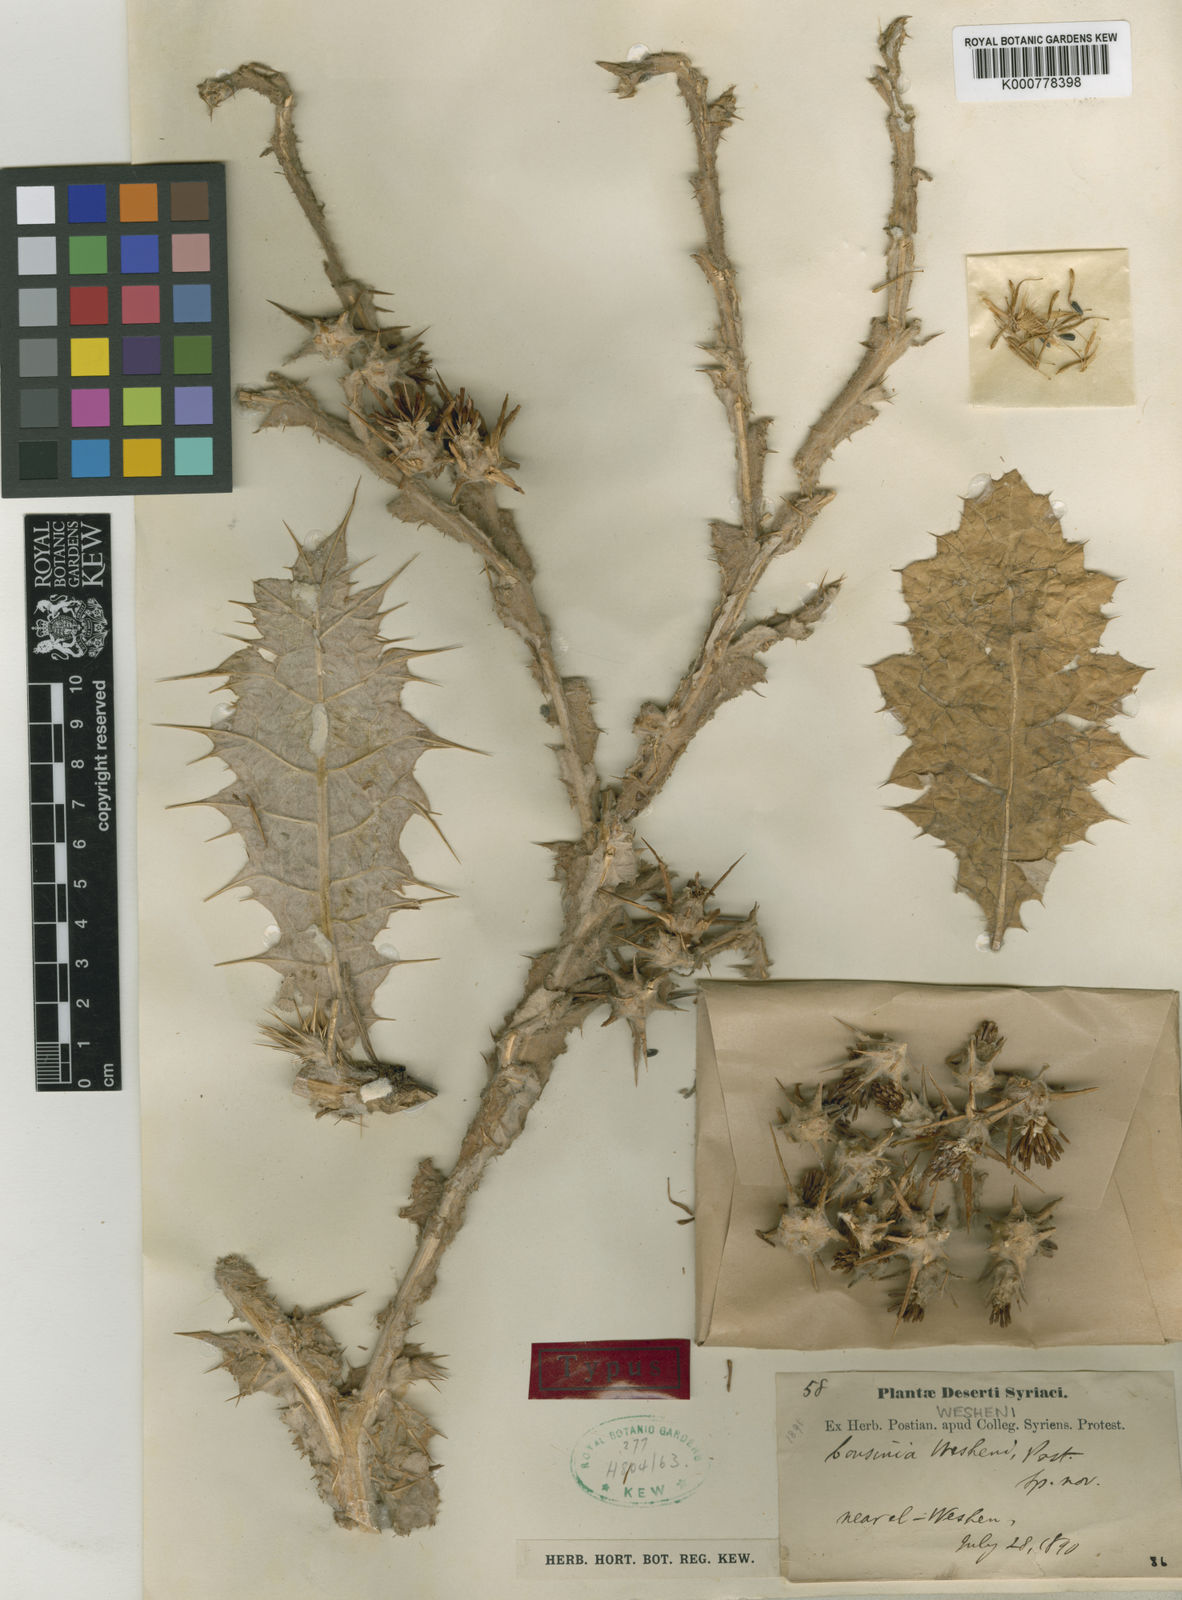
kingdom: Plantae
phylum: Tracheophyta
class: Magnoliopsida
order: Asterales
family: Asteraceae
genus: Cousinia
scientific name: Cousinia wesheni
